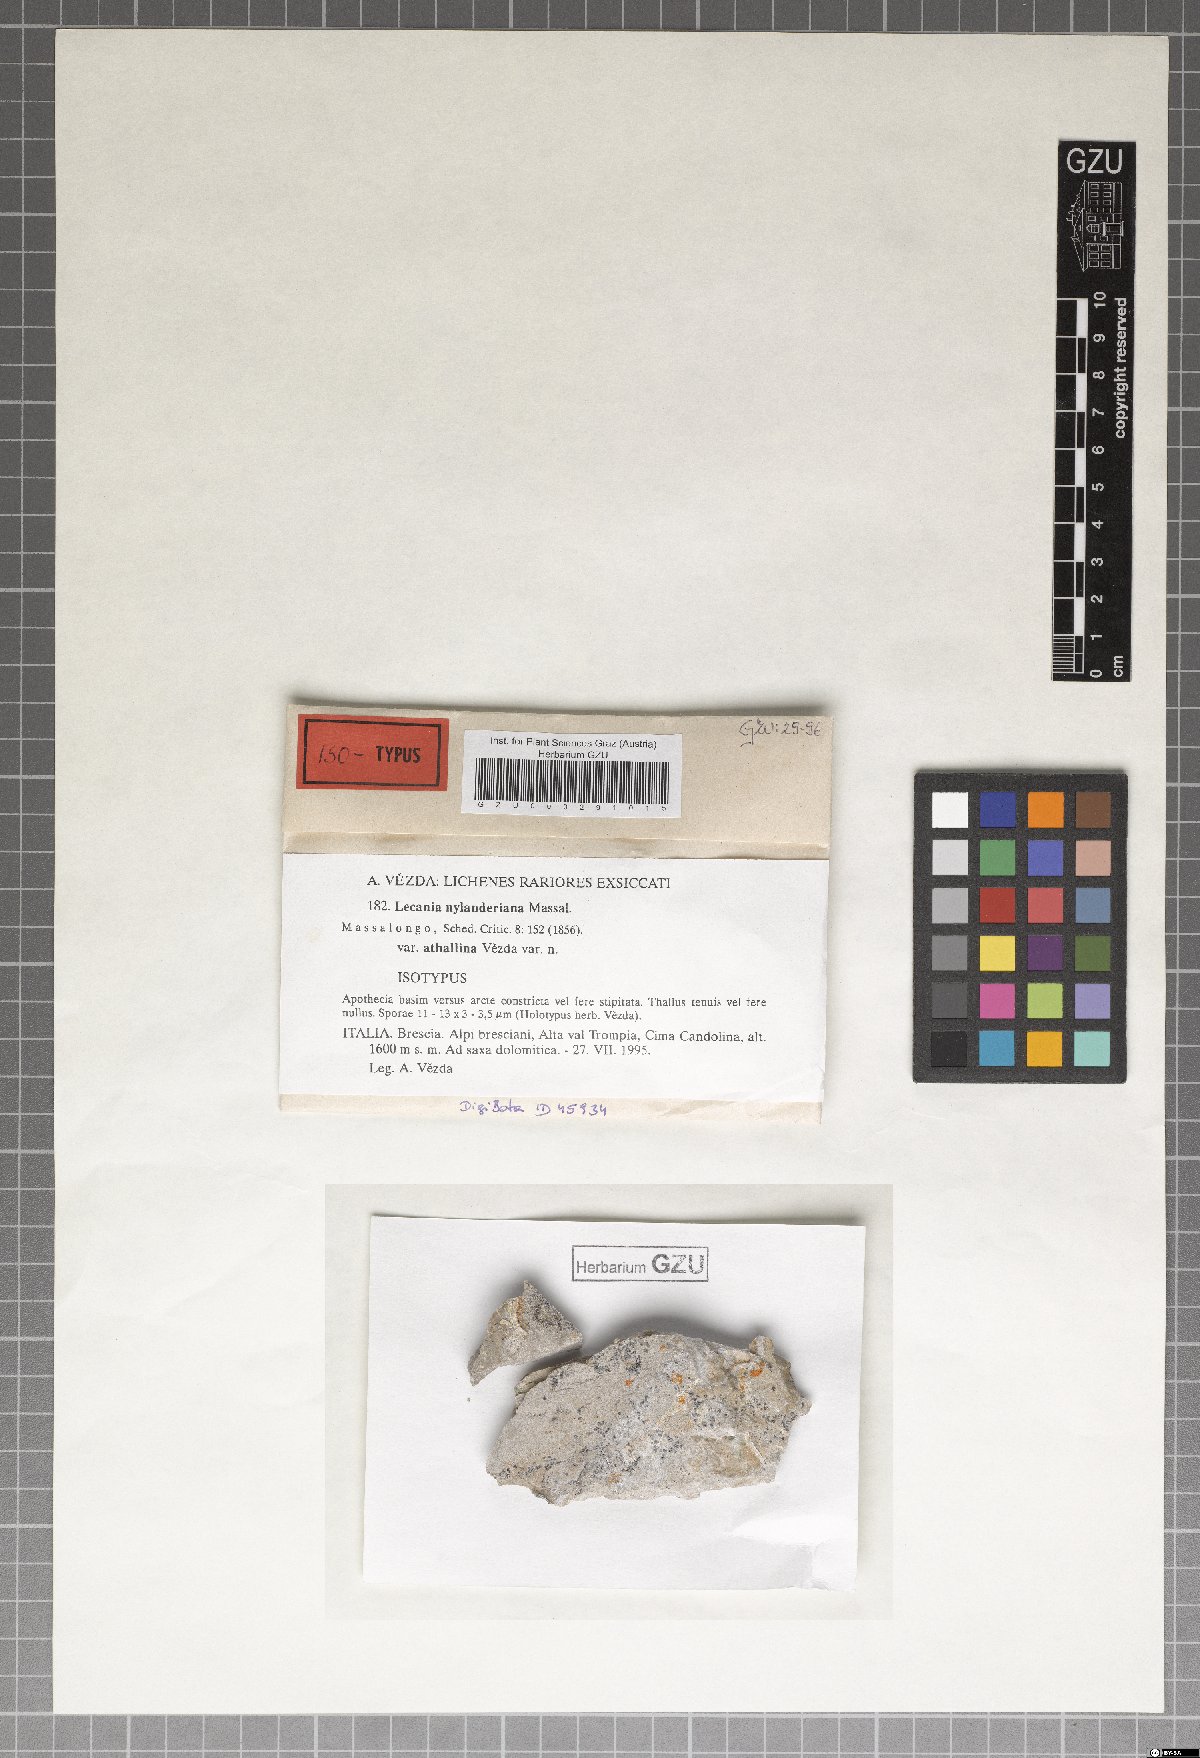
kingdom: Fungi
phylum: Ascomycota
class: Lecanoromycetes
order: Lecanorales
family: Ramalinaceae
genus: Lecania
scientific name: Lecania nylanderiana
